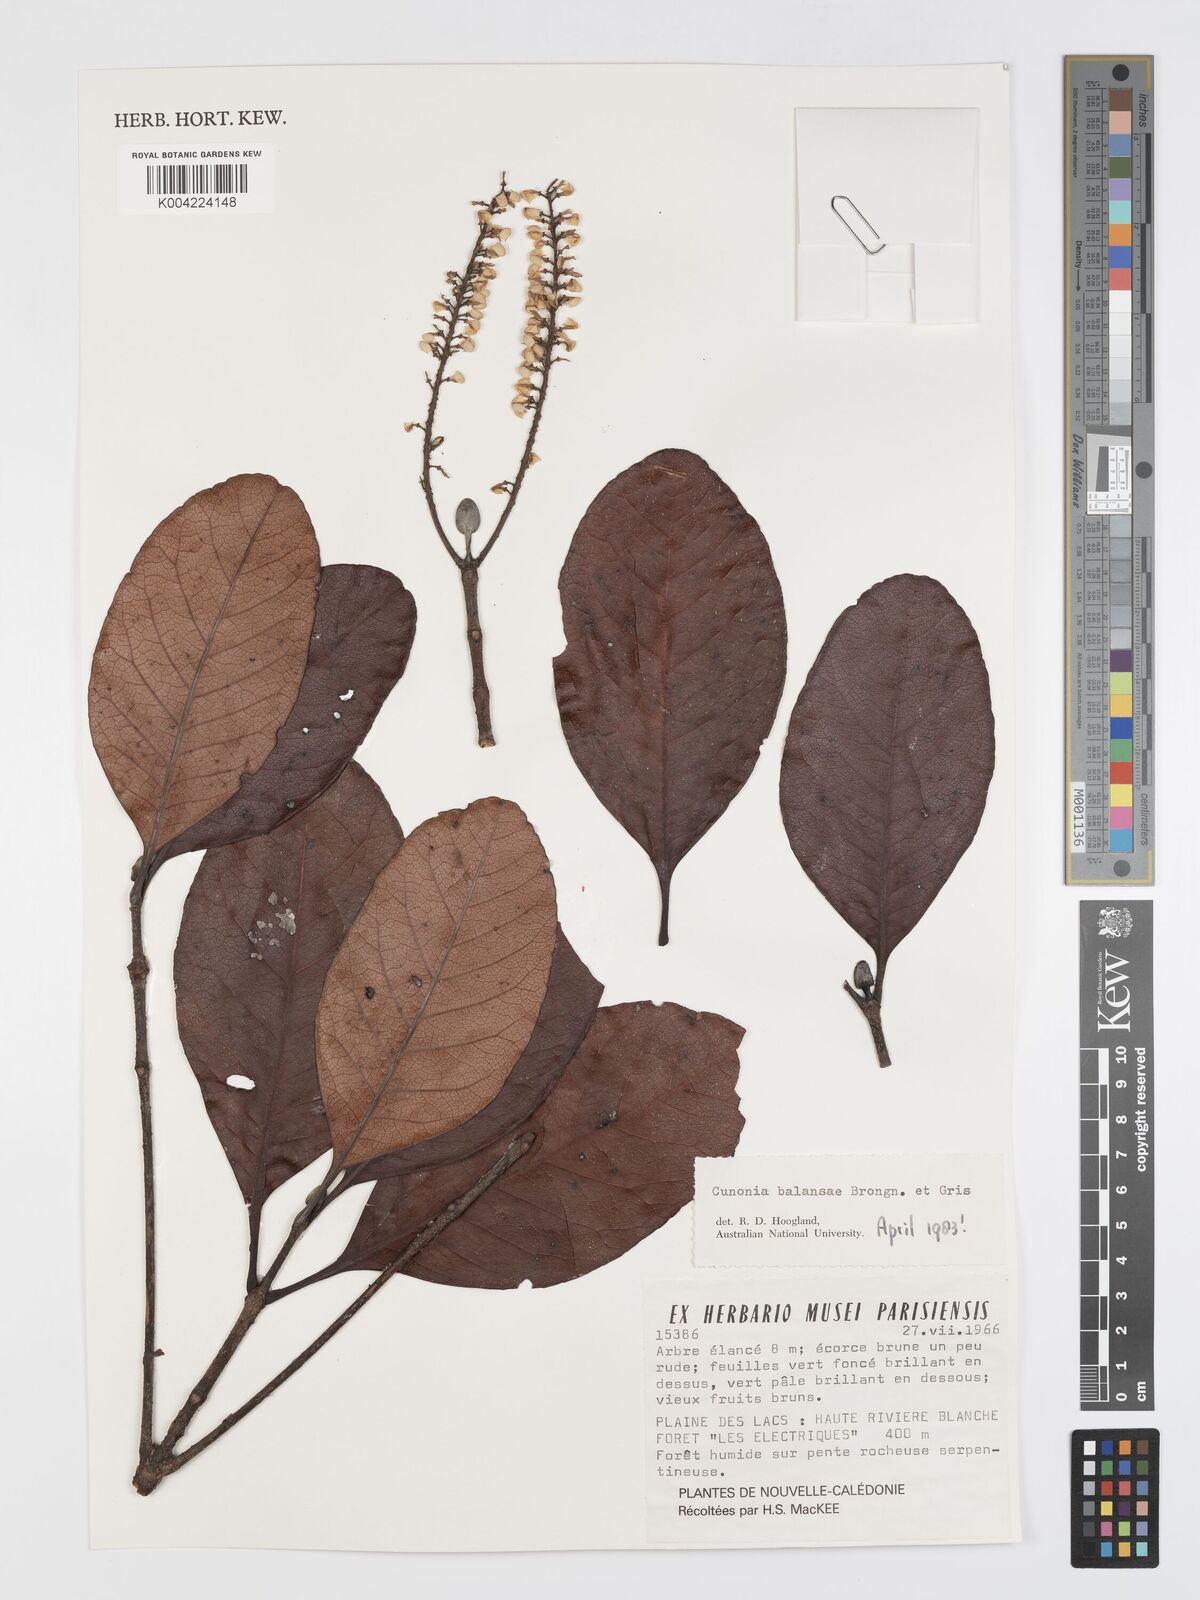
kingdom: Plantae
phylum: Tracheophyta
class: Magnoliopsida
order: Oxalidales
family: Cunoniaceae
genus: Cunonia
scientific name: Cunonia balansae
